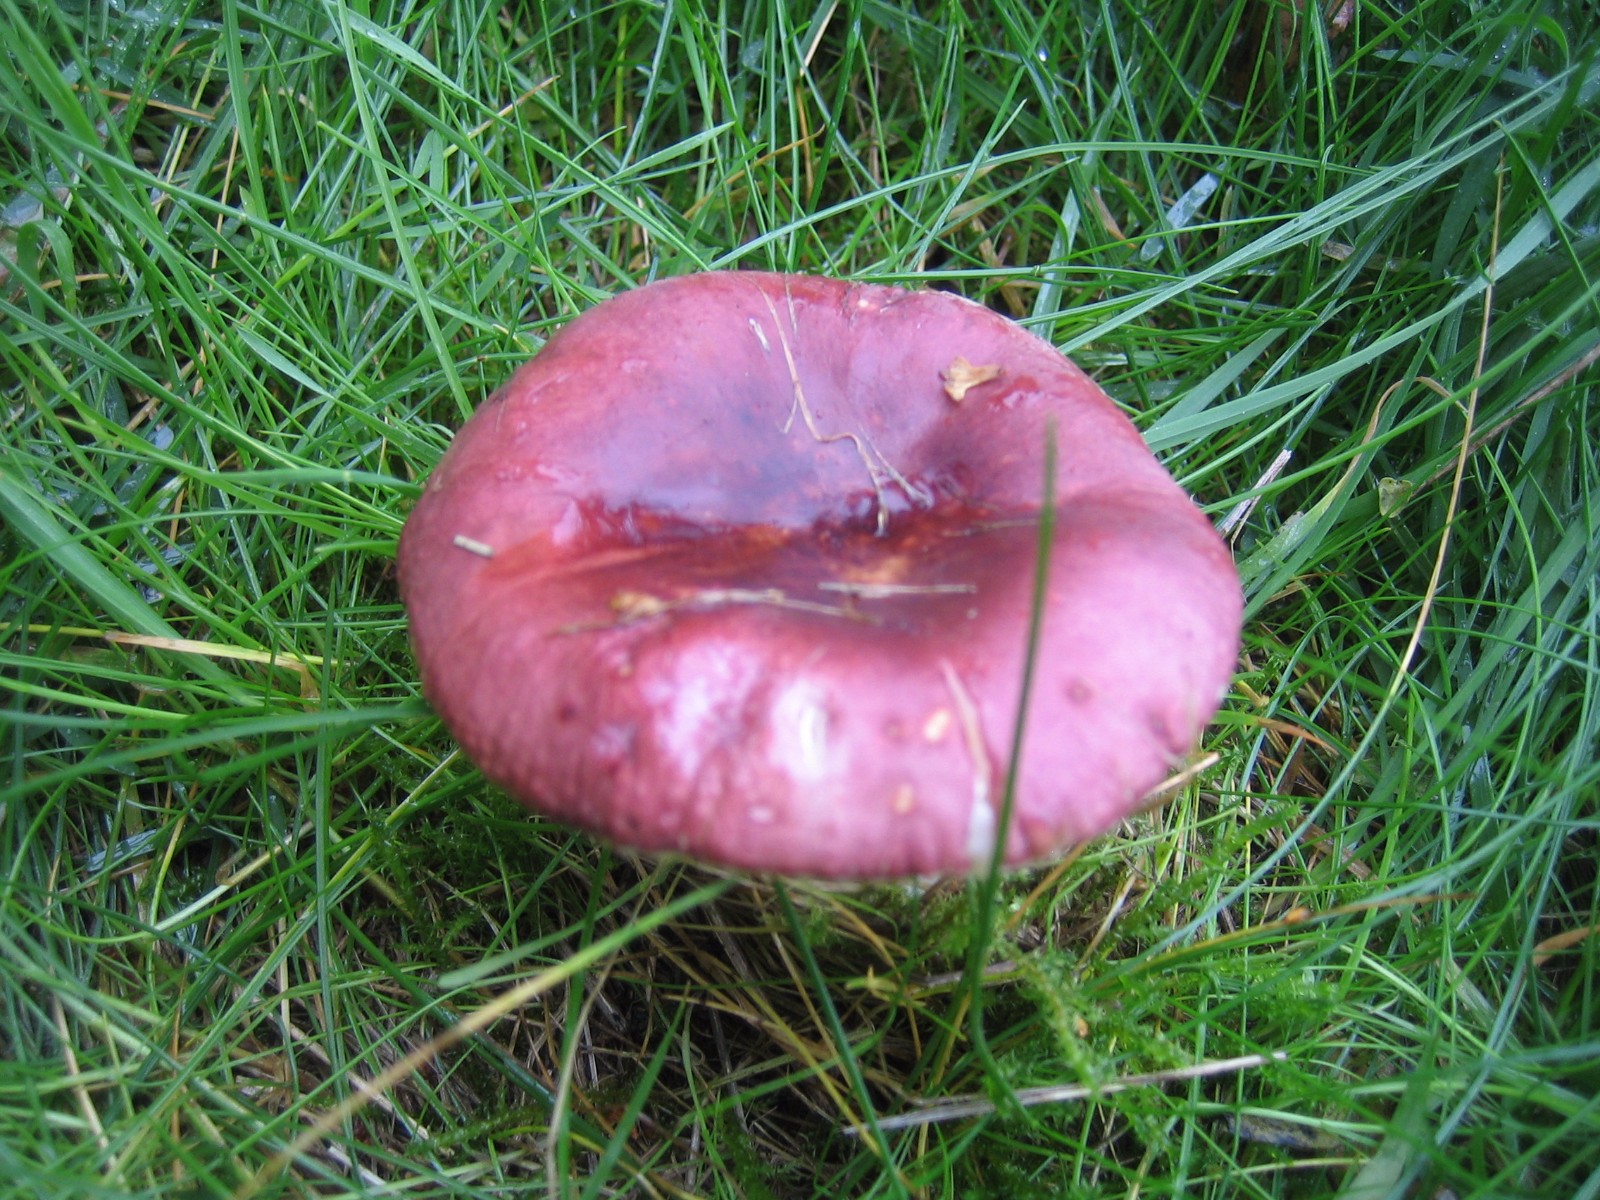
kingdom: Fungi
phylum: Basidiomycota
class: Agaricomycetes
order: Russulales
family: Russulaceae
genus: Russula
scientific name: Russula cessans
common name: fyrre-skørhat
